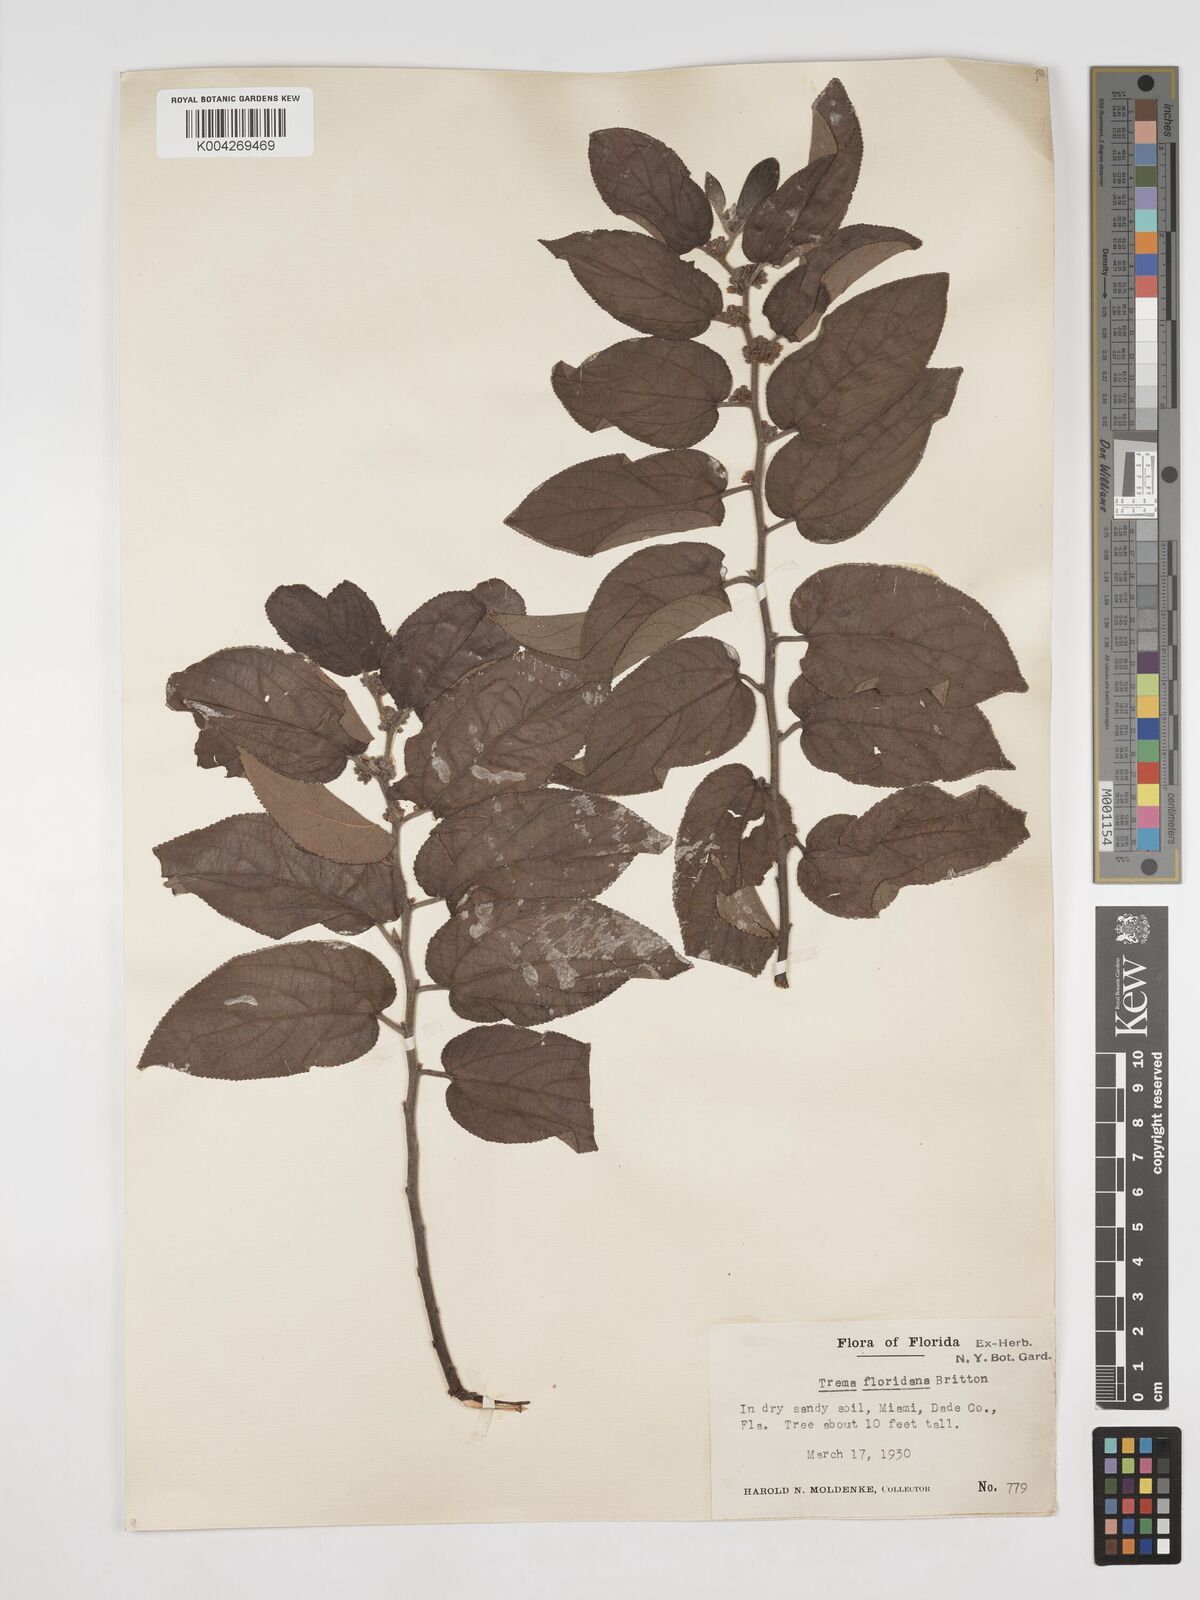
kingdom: Plantae
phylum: Tracheophyta
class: Magnoliopsida
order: Rosales
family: Cannabaceae
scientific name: Cannabaceae
